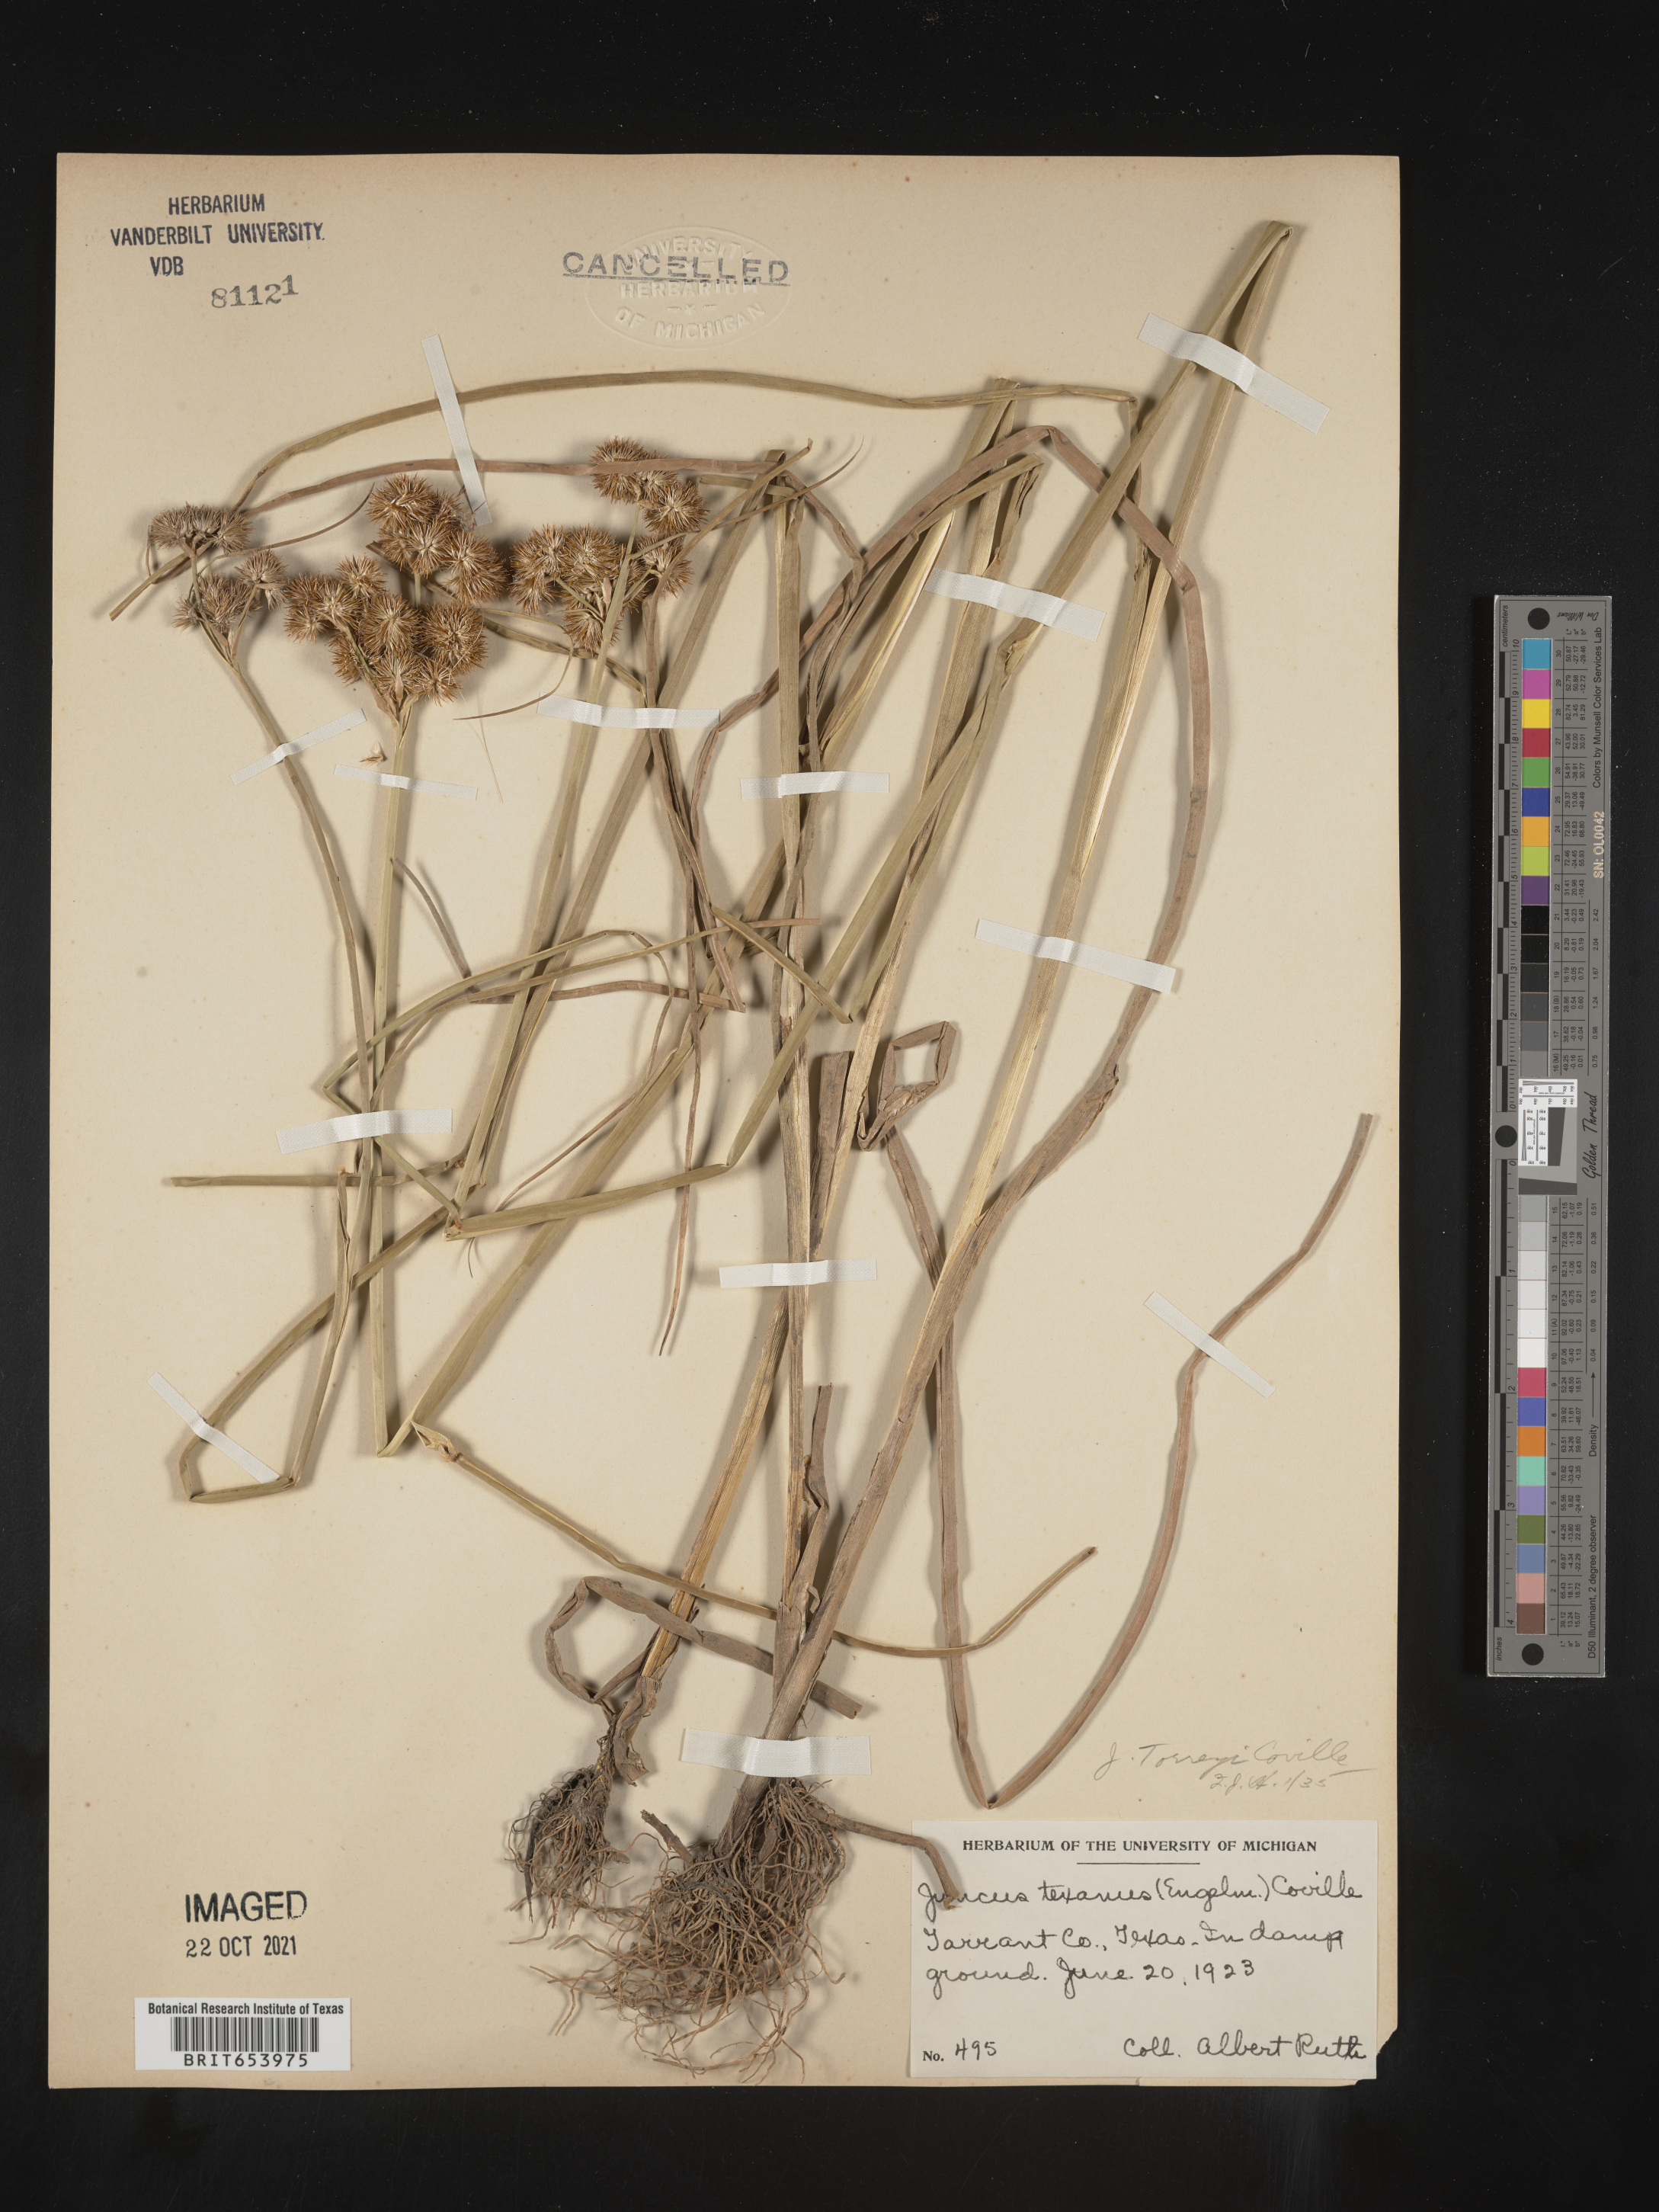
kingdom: Plantae
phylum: Tracheophyta
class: Liliopsida
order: Poales
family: Juncaceae
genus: Juncus
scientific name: Juncus torreyi
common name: Torrey's rush
